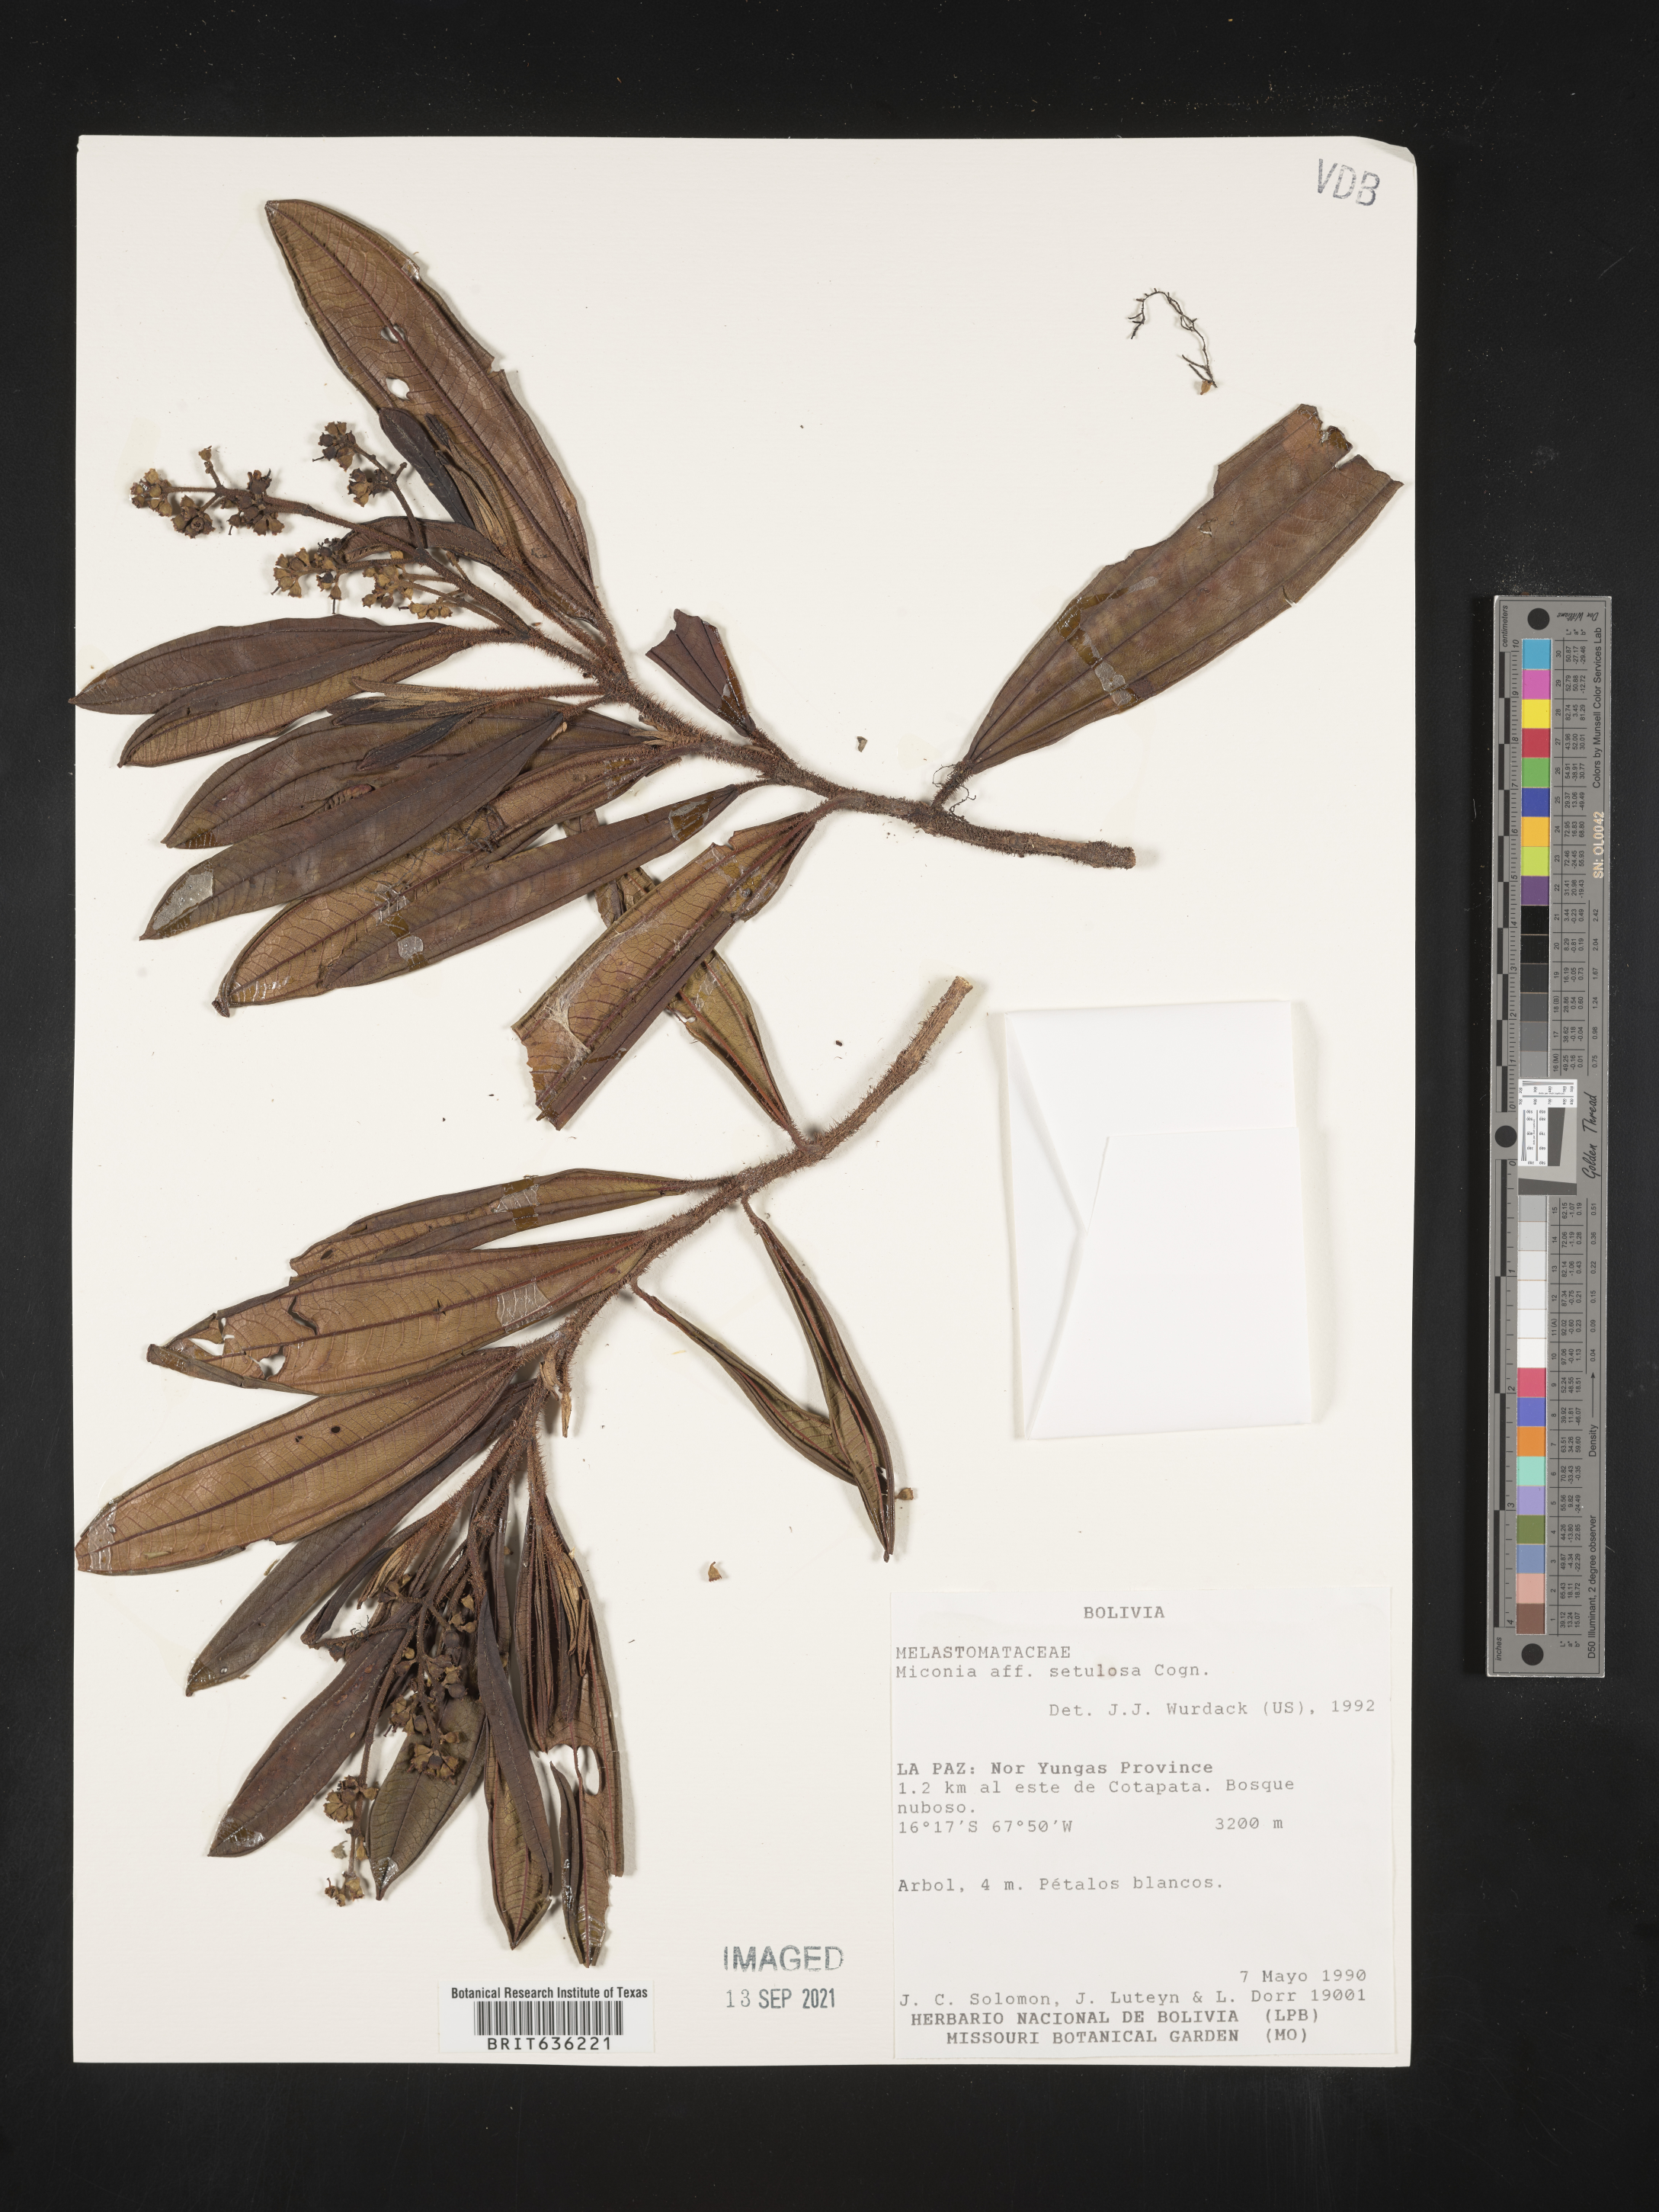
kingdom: Plantae
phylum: Tracheophyta
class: Magnoliopsida
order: Myrtales
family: Melastomataceae
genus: Miconia
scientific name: Miconia
